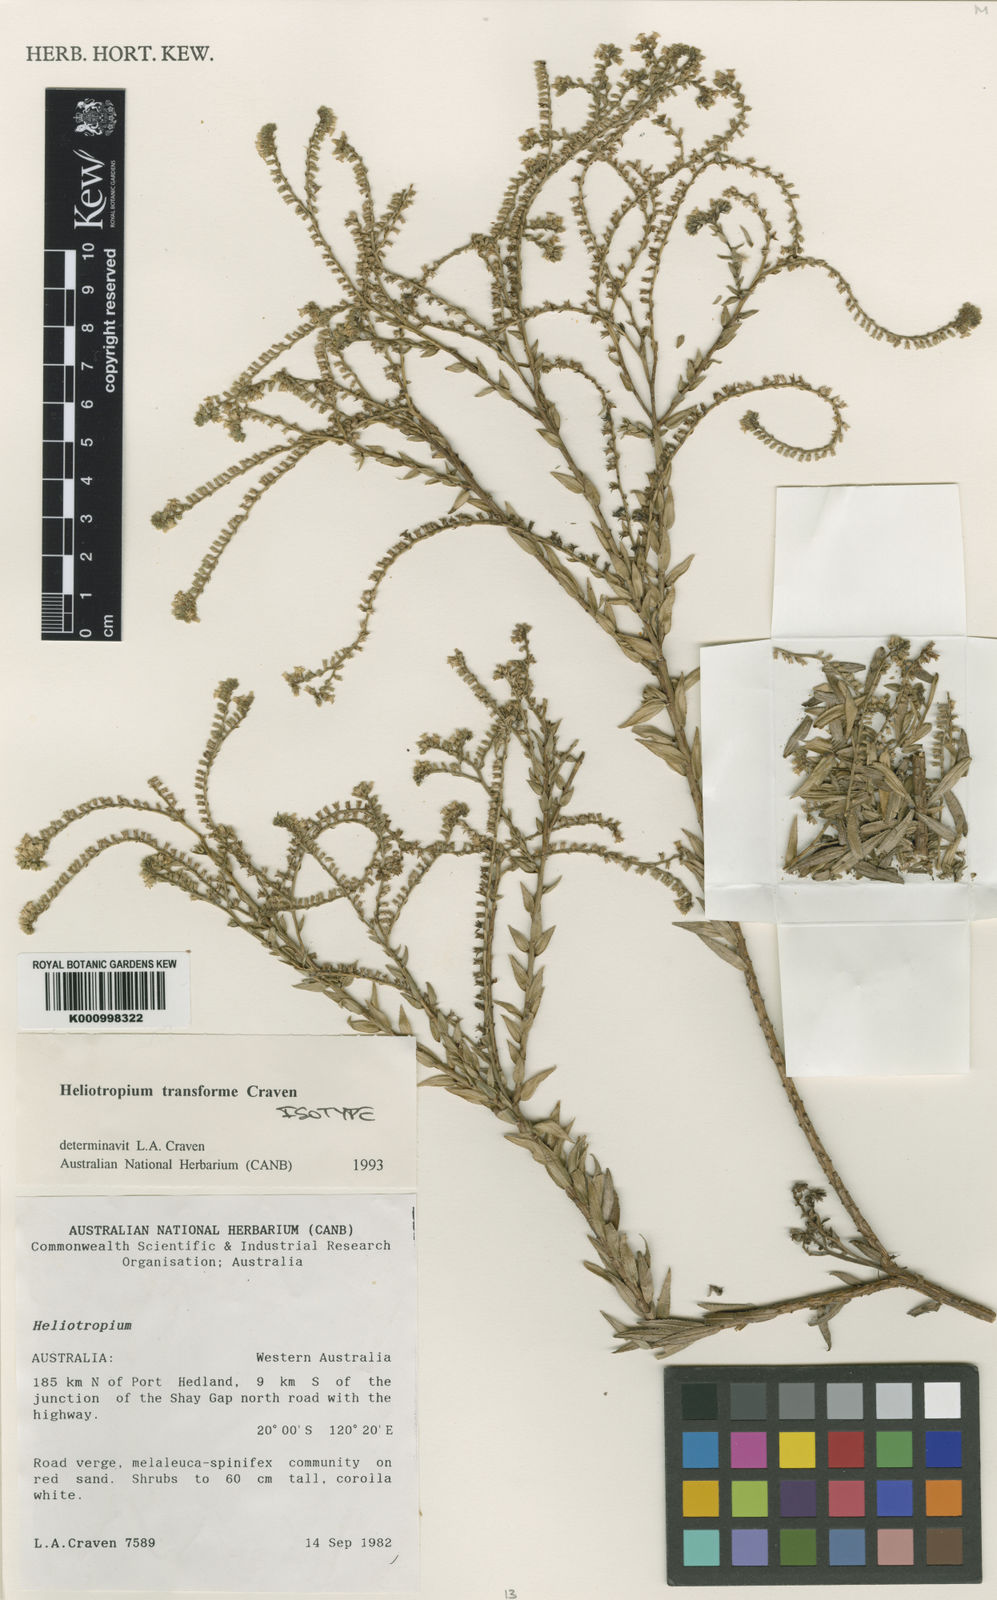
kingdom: Plantae
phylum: Tracheophyta
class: Magnoliopsida
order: Boraginales
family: Heliotropiaceae
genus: Euploca
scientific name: Euploca transformis
